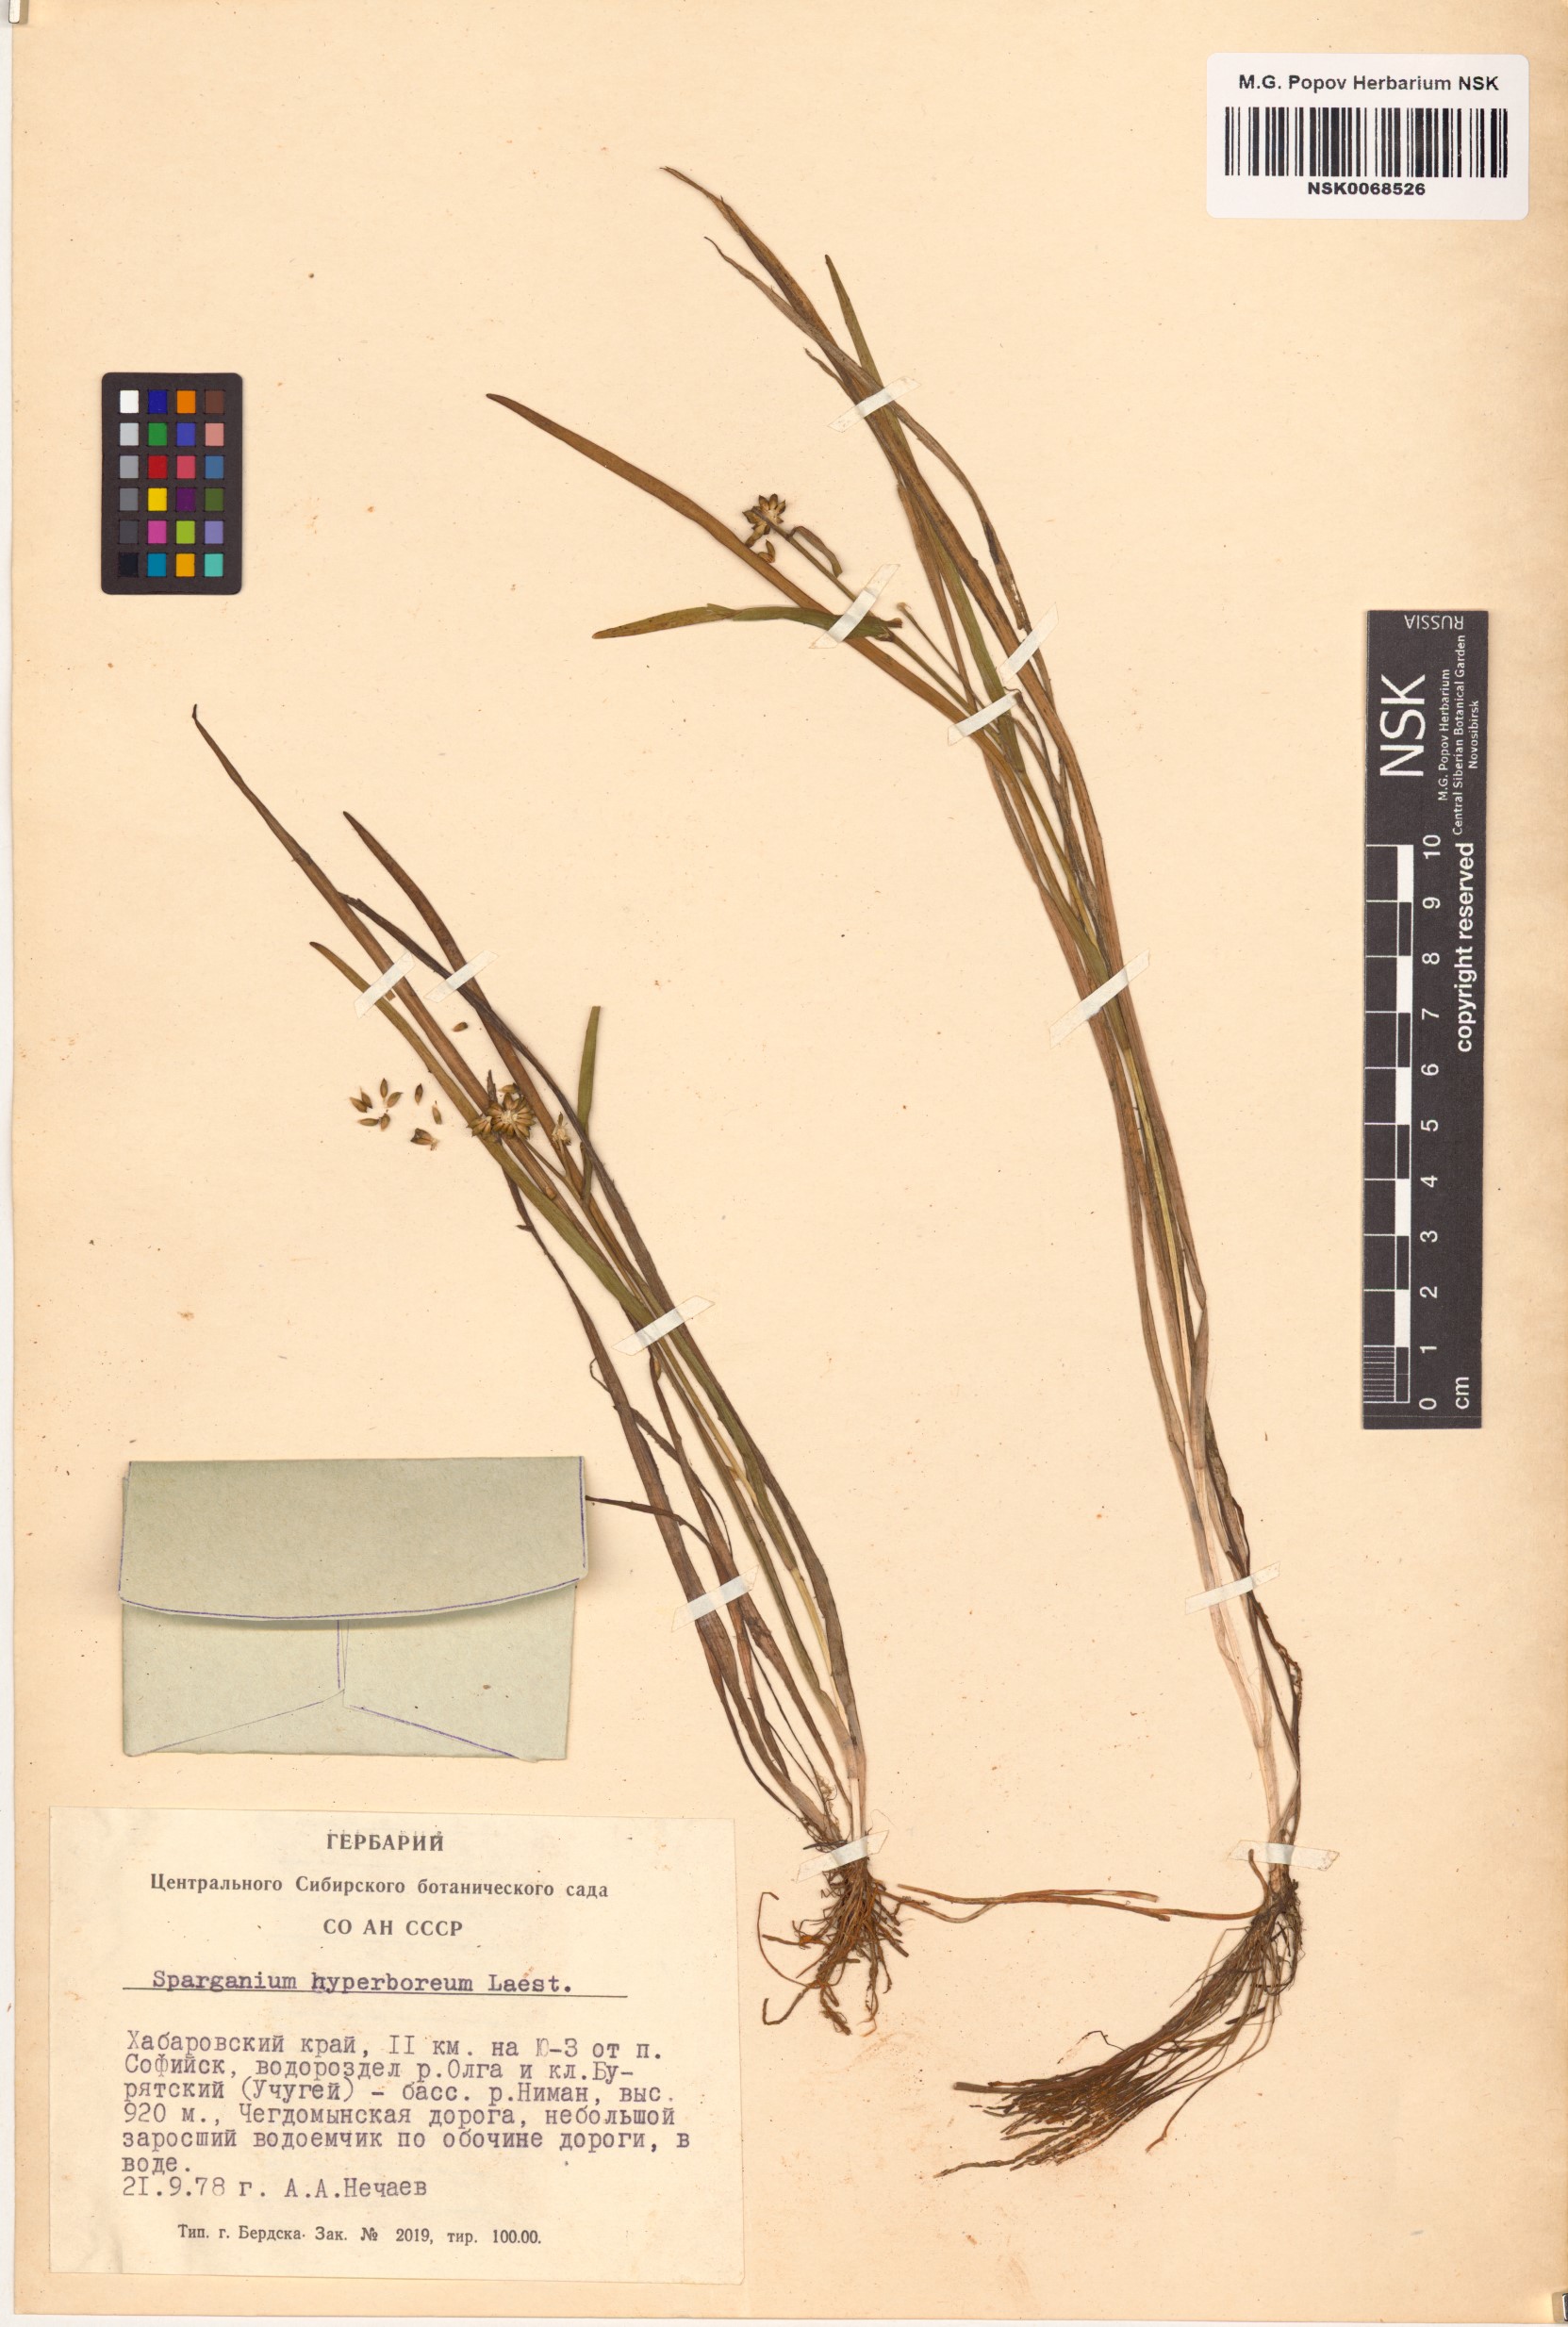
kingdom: Plantae
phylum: Tracheophyta
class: Liliopsida
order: Poales
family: Typhaceae
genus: Sparganium
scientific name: Sparganium hyperboreum
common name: Arctic burreed
